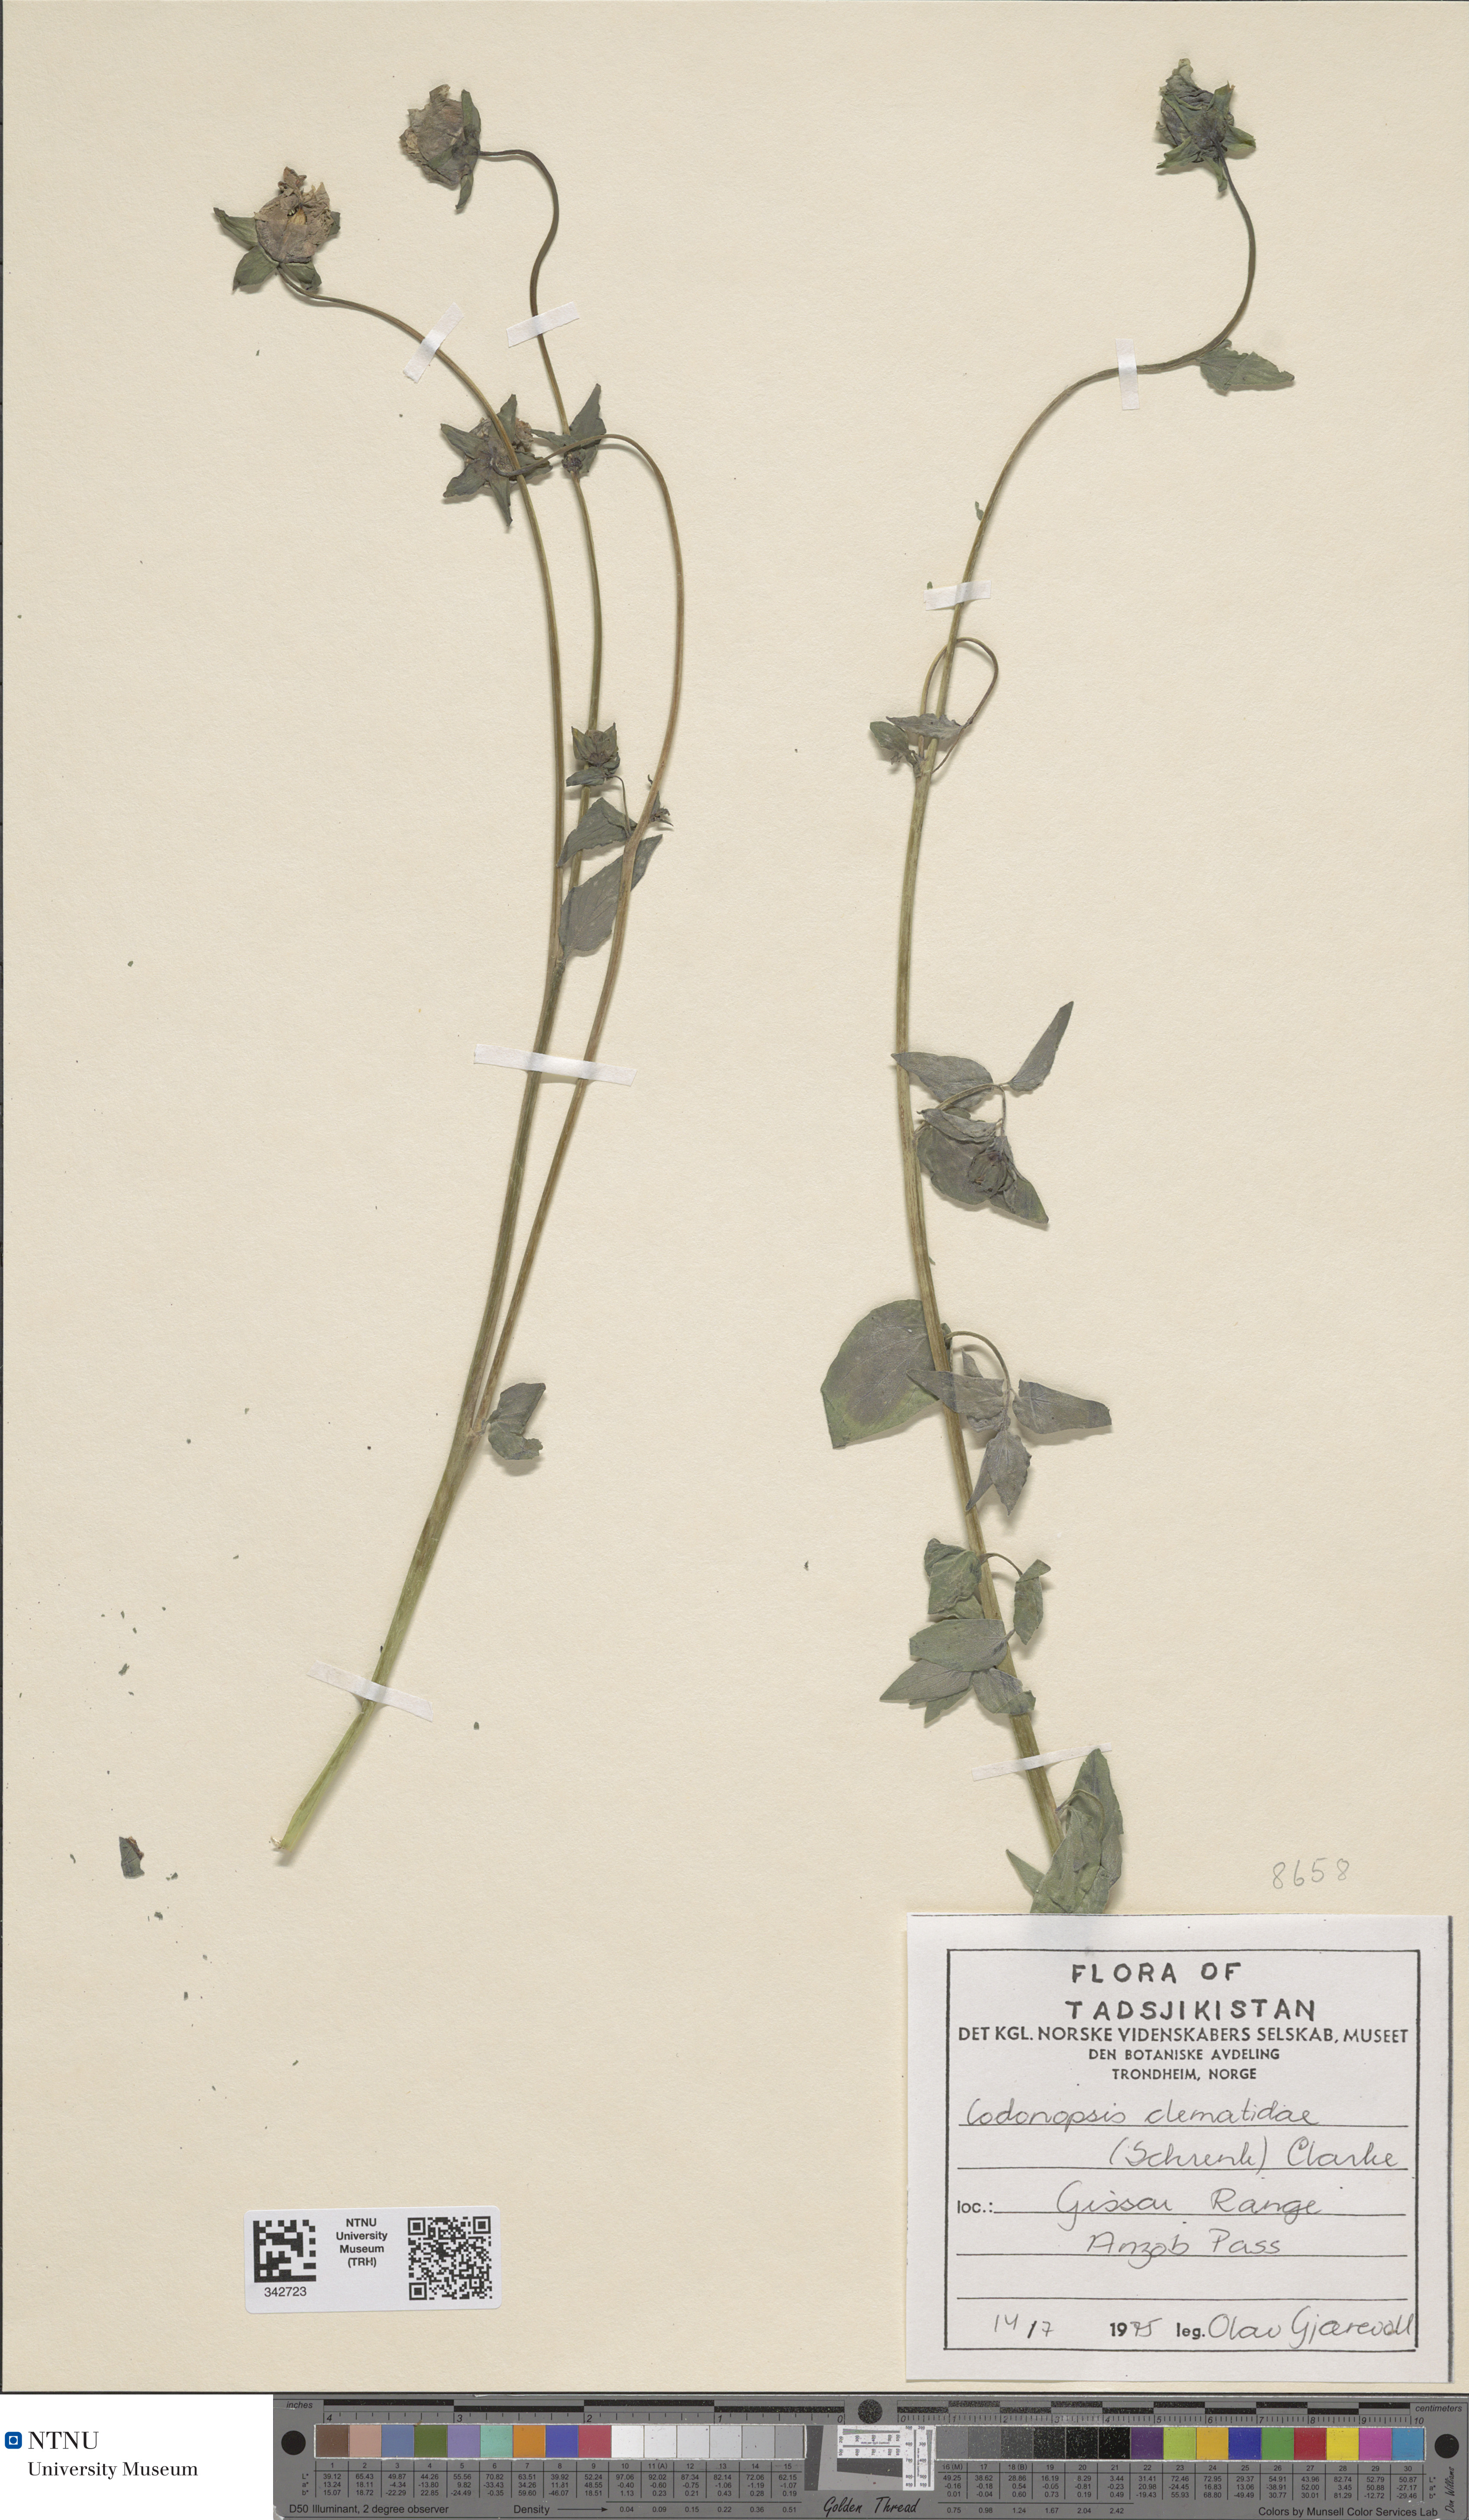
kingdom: Plantae
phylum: Tracheophyta
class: Magnoliopsida
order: Asterales
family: Campanulaceae
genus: Codonopsis
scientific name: Codonopsis clematidea
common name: Bonnet-bellflower
